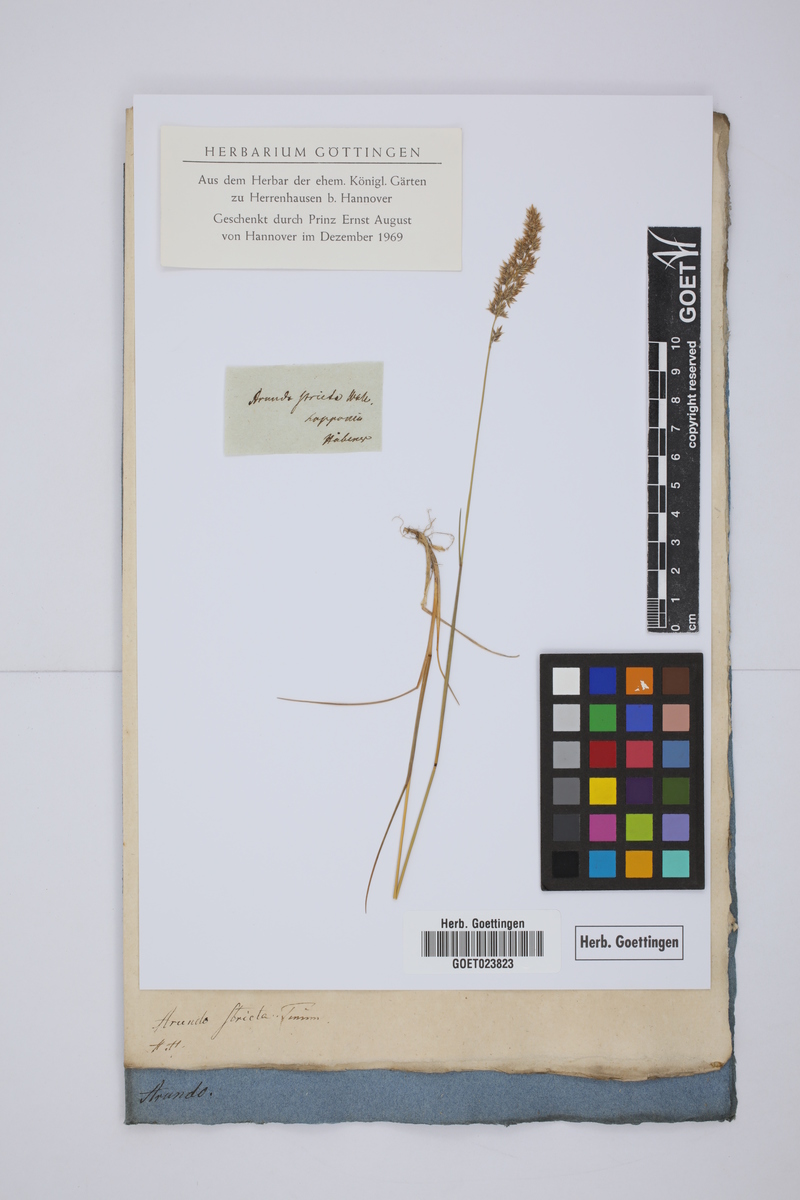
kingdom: Plantae
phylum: Tracheophyta
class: Liliopsida
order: Poales
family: Poaceae
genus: Calamagrostis
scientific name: Calamagrostis stricta
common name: Narrow small-reed
